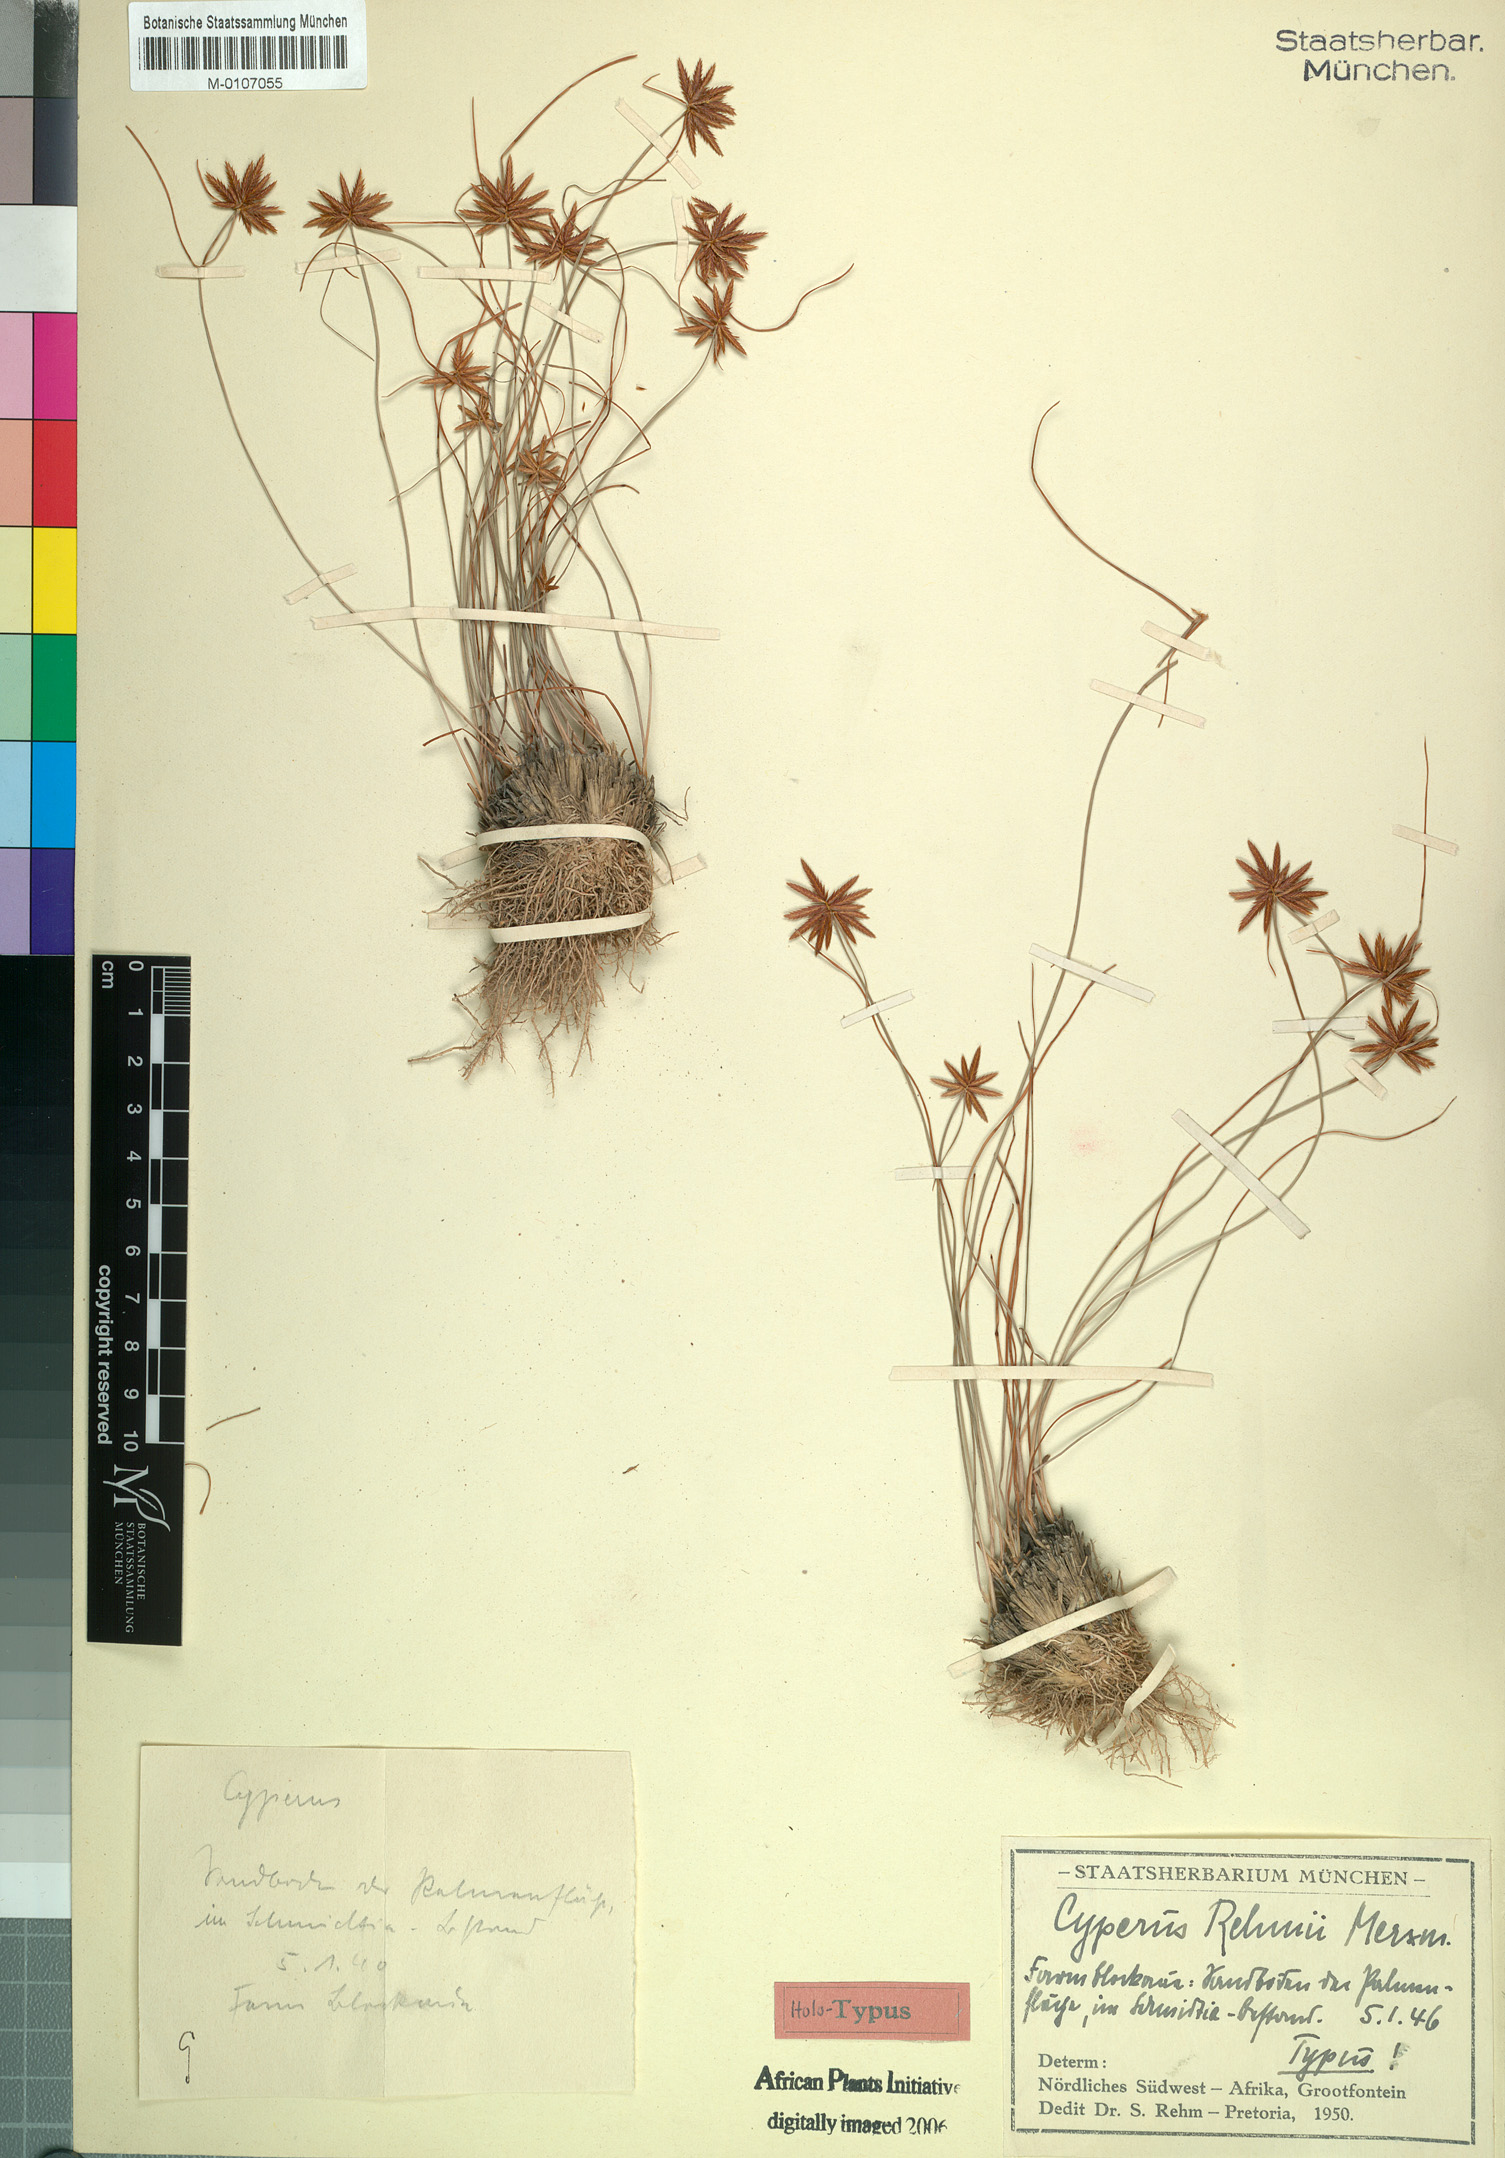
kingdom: Plantae
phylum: Tracheophyta
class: Liliopsida
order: Poales
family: Cyperaceae
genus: Cyperus
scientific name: Cyperus rehmii
